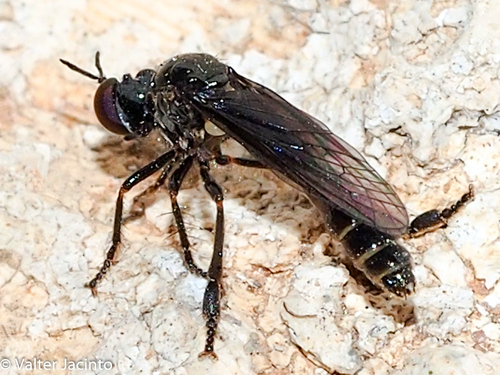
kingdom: Animalia
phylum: Arthropoda
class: Insecta
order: Diptera
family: Asilidae
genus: Dioctria
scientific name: Dioctria gagates
